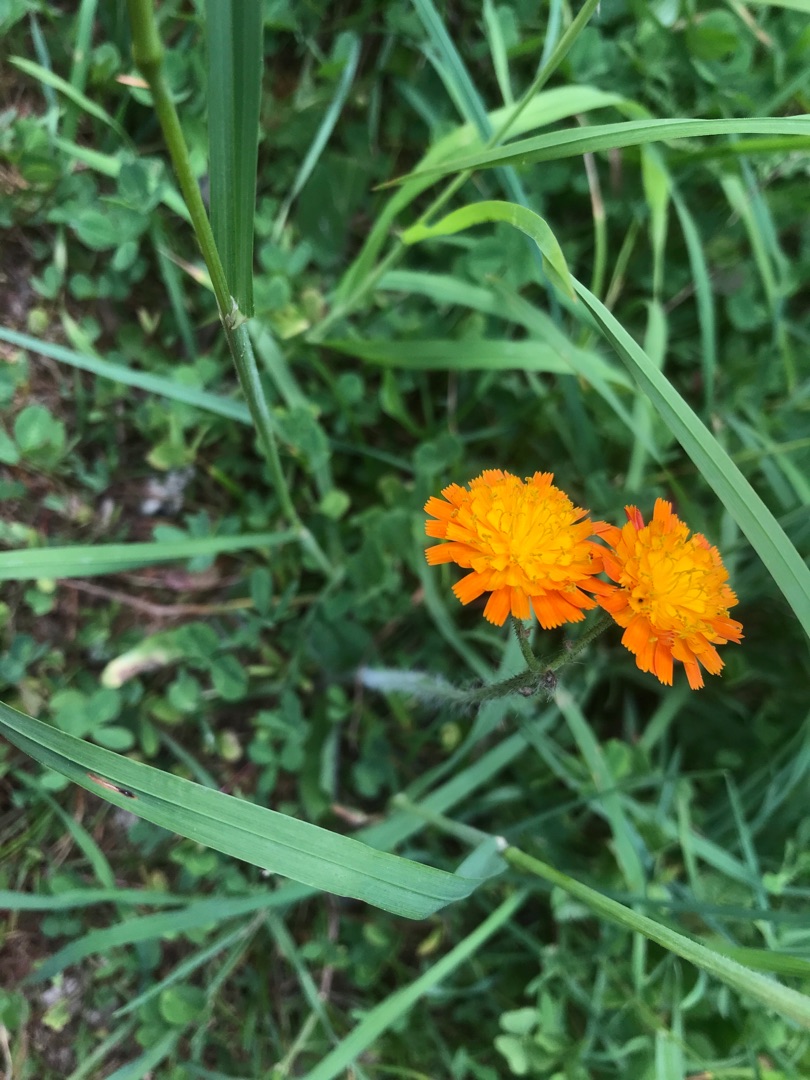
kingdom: Plantae
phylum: Tracheophyta
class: Magnoliopsida
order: Asterales
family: Asteraceae
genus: Pilosella
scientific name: Pilosella aurantiaca
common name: Pomerans-høgeurt
